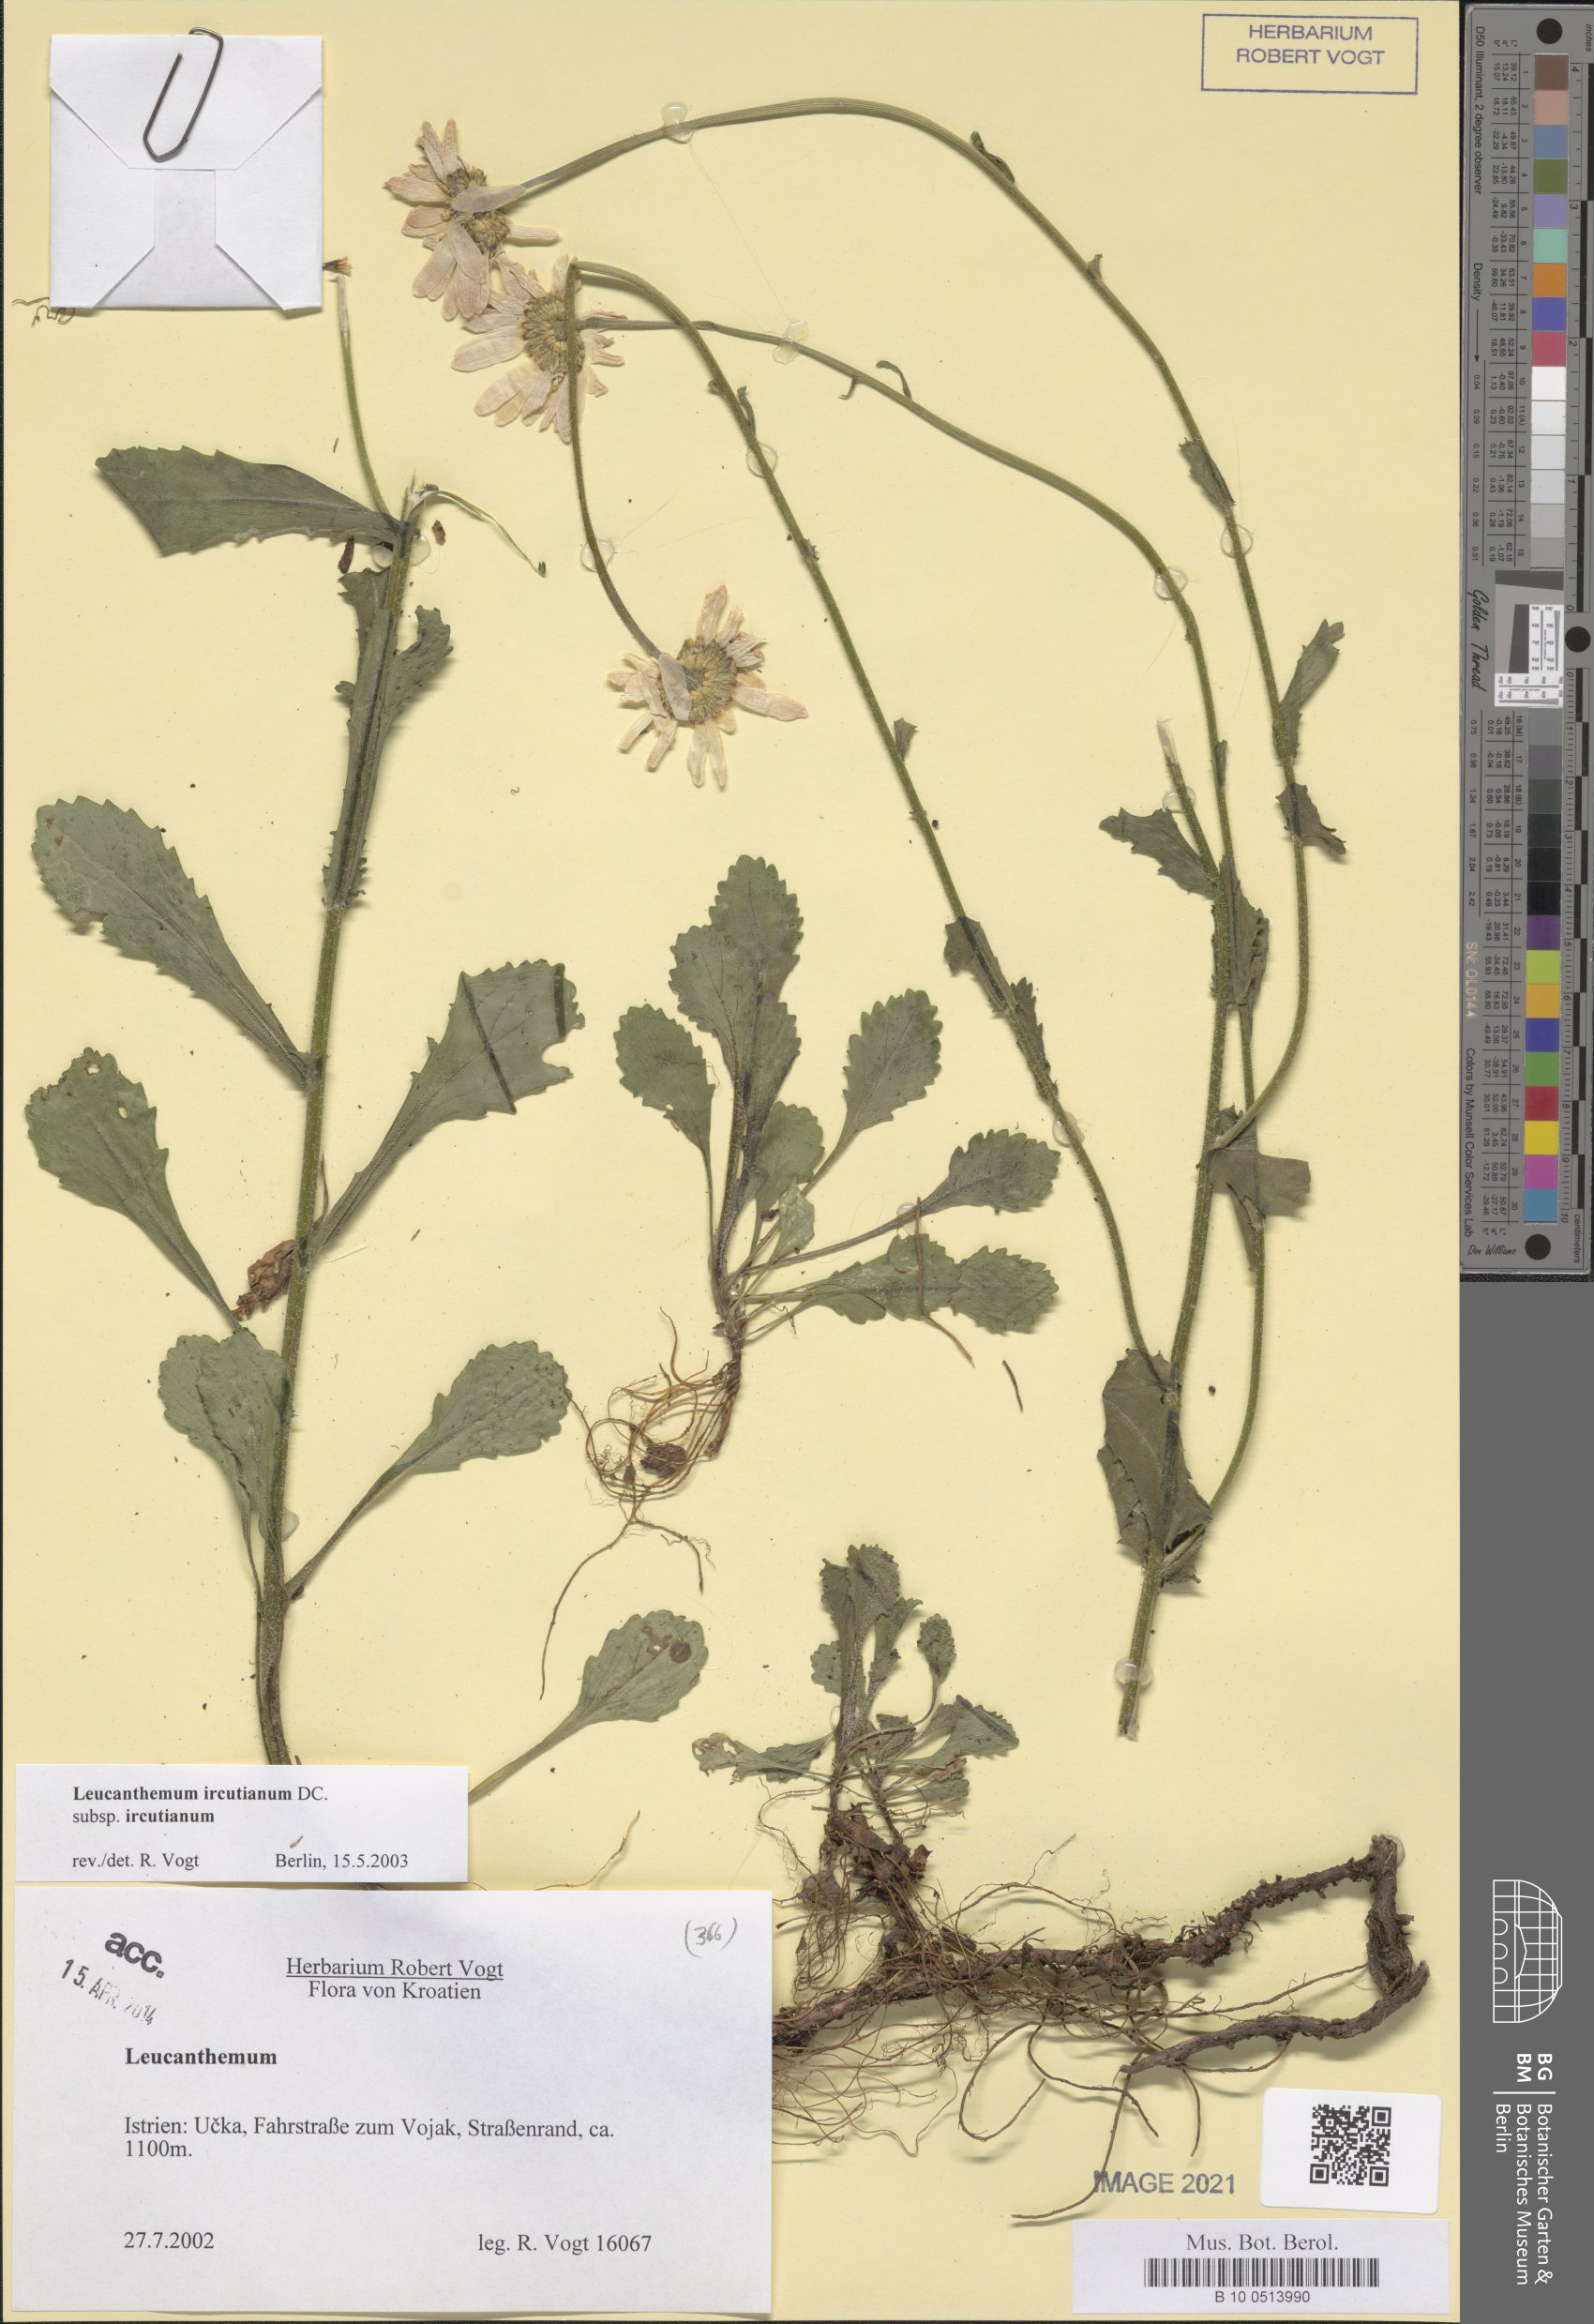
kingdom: Plantae
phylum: Tracheophyta
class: Magnoliopsida
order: Asterales
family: Asteraceae
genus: Leucanthemum
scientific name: Leucanthemum ircutianum
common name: Daisy
